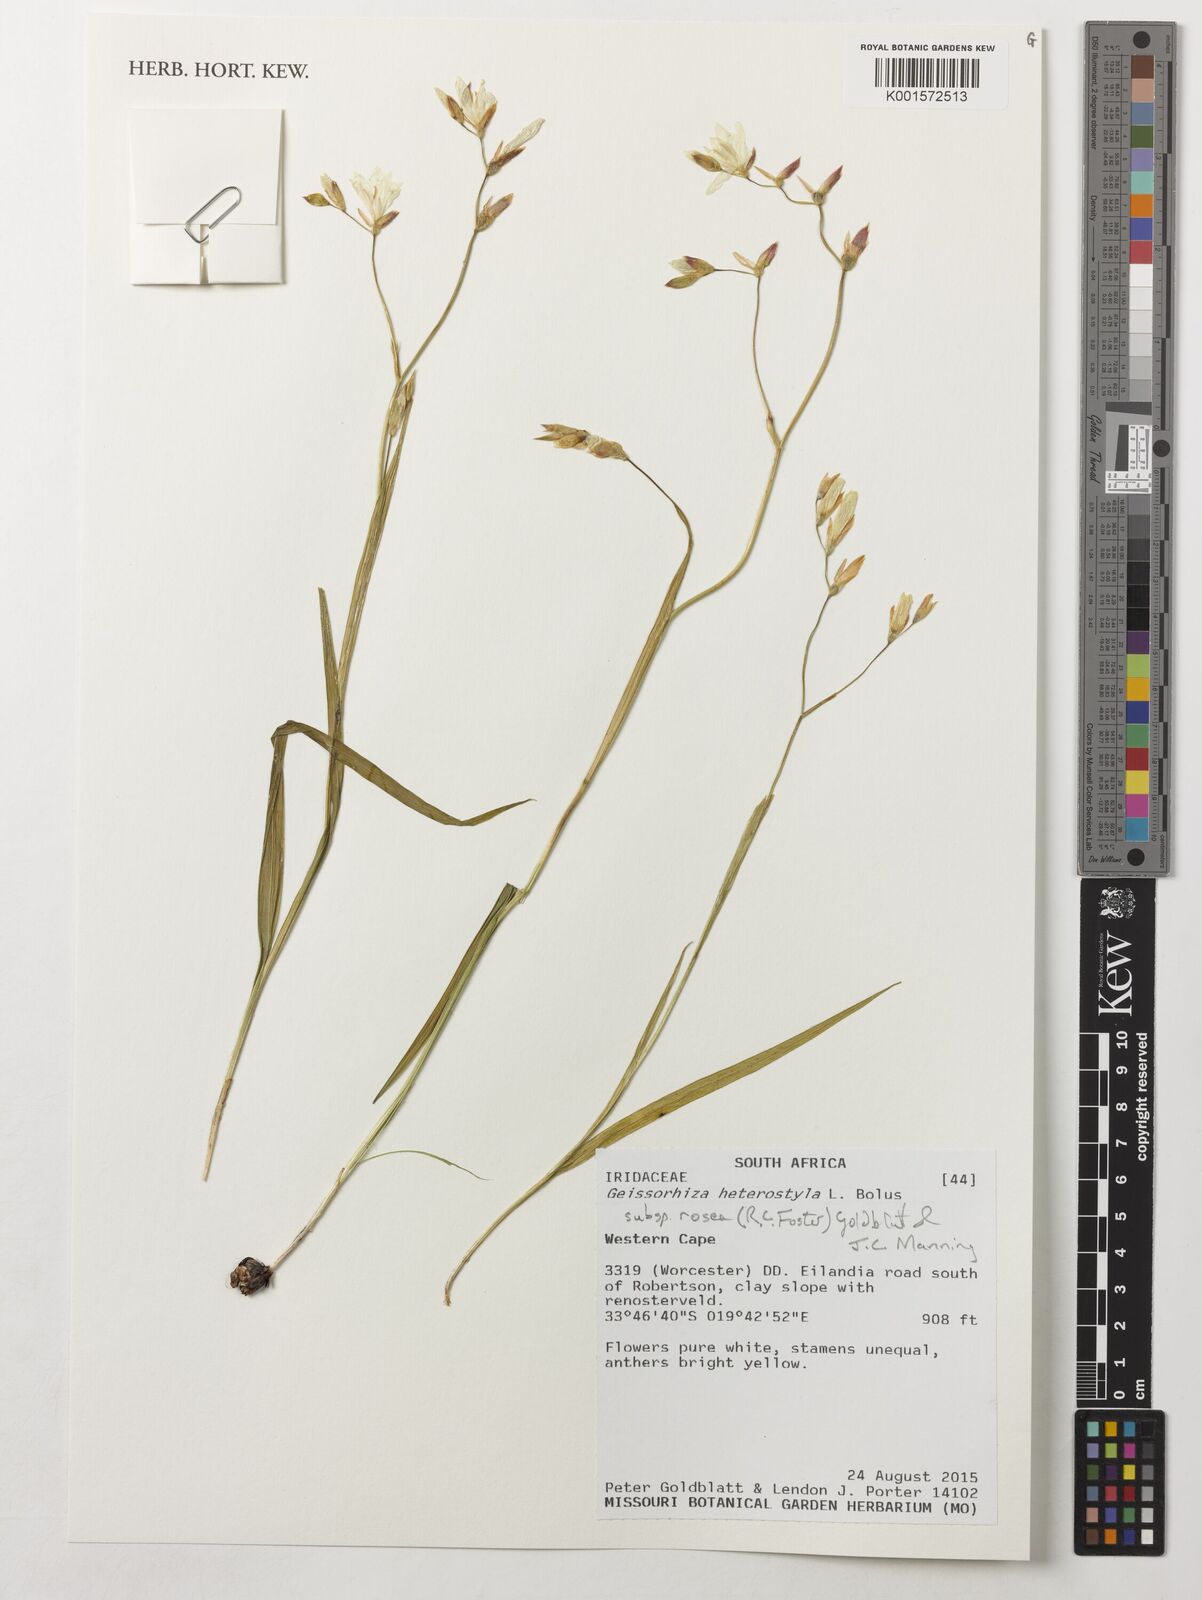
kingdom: Plantae
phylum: Tracheophyta
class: Liliopsida
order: Asparagales
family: Iridaceae
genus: Geissorhiza
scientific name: Geissorhiza heterostyla
